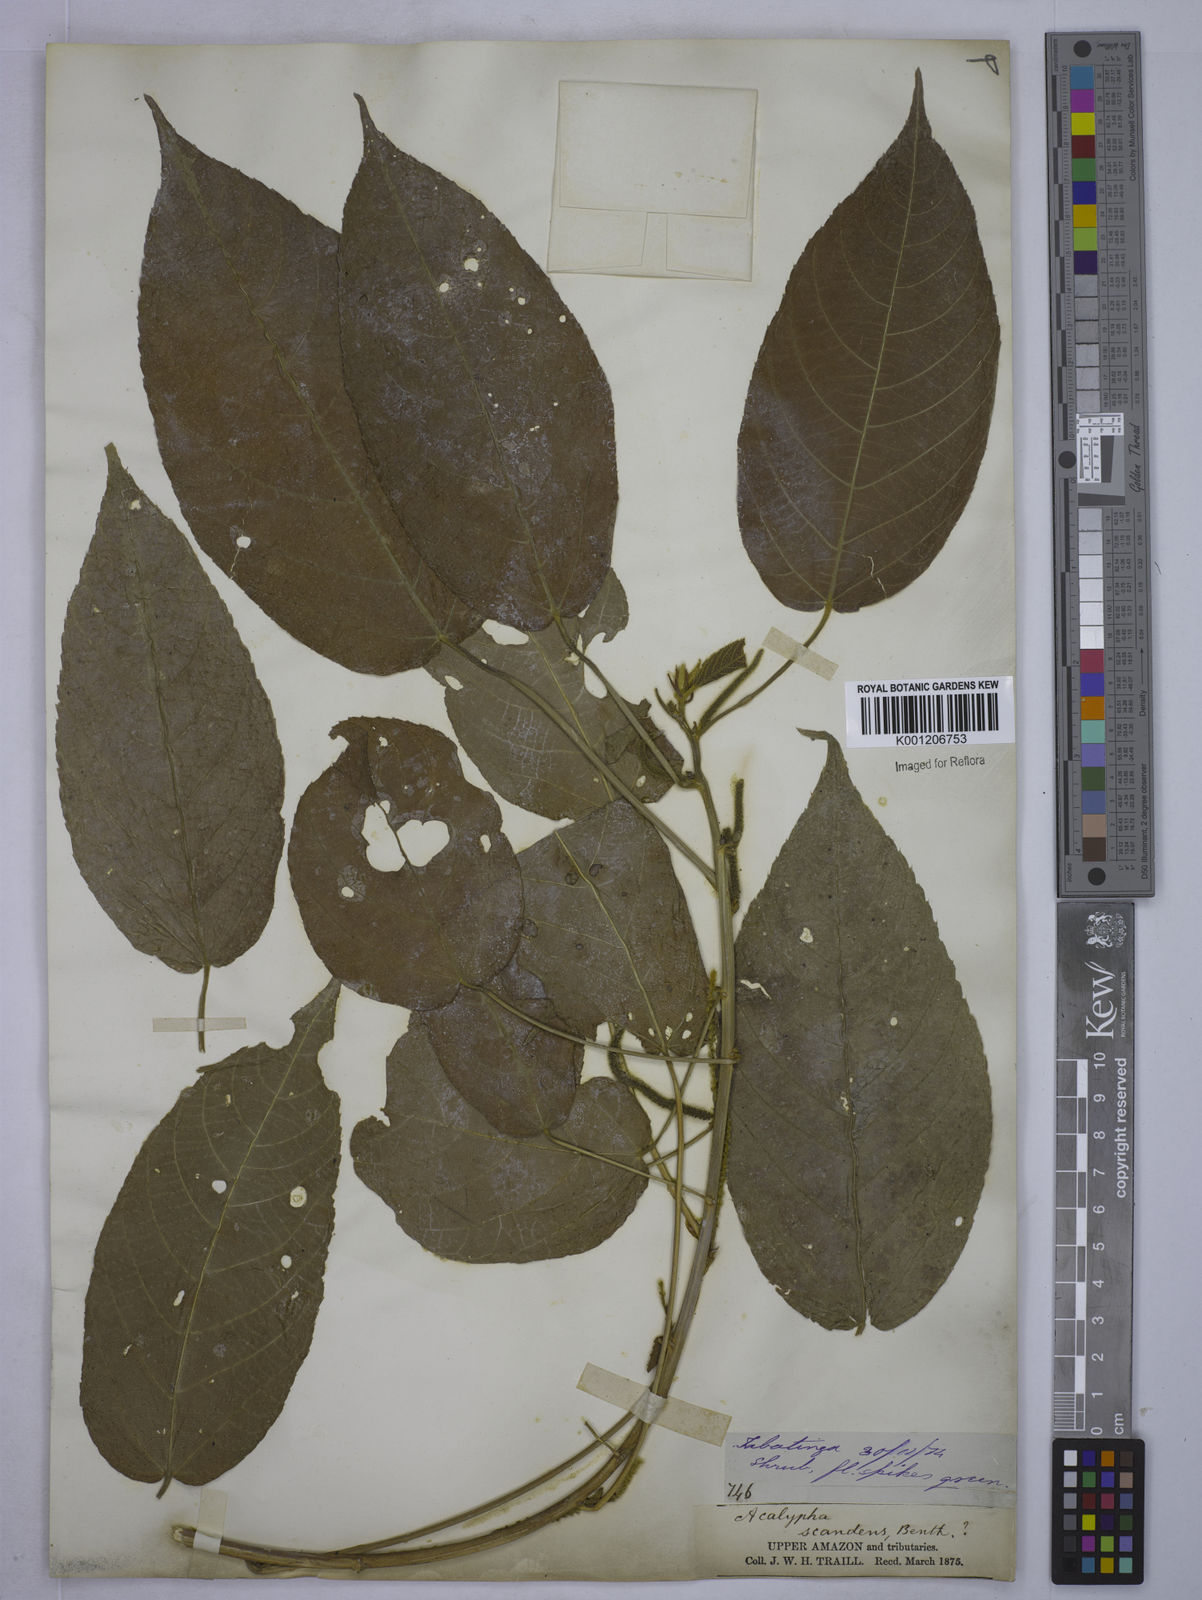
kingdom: Plantae
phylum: Tracheophyta
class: Magnoliopsida
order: Malpighiales
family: Euphorbiaceae
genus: Acalypha
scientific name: Acalypha scandens
